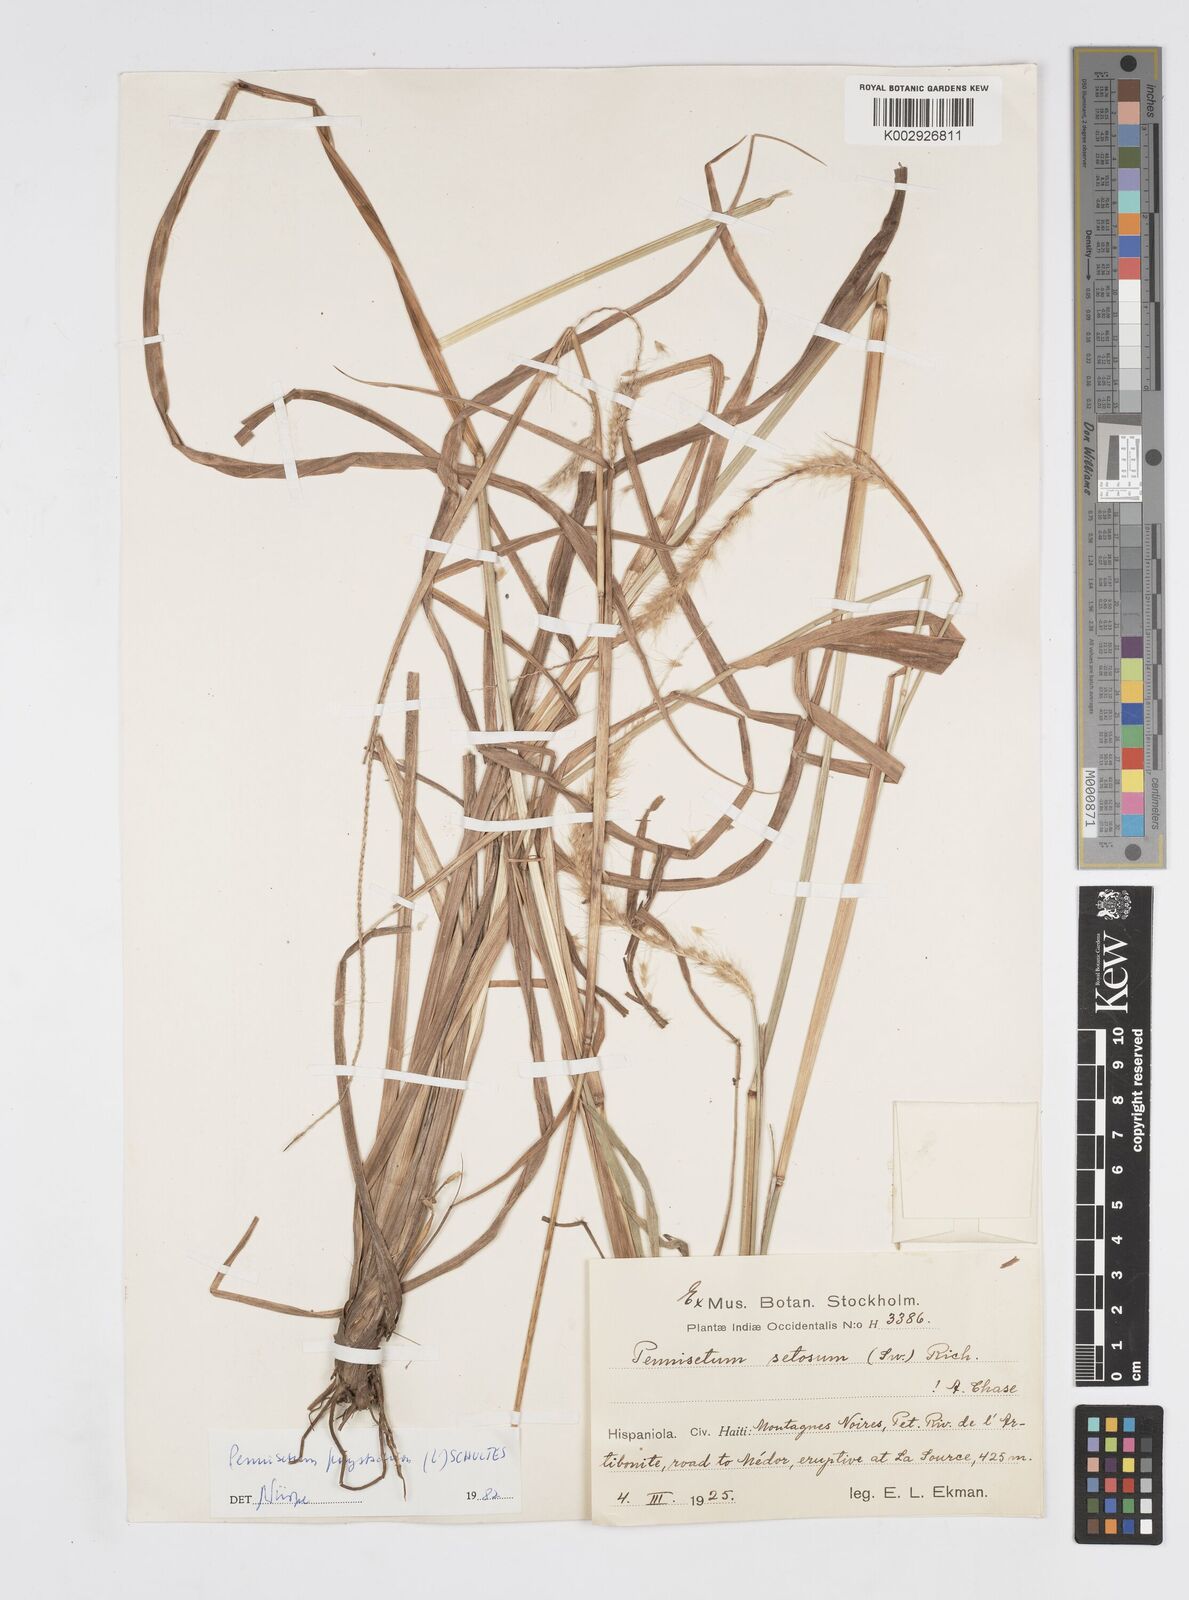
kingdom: Plantae
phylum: Tracheophyta
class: Liliopsida
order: Poales
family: Poaceae
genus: Cenchrus
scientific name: Cenchrus setosus
